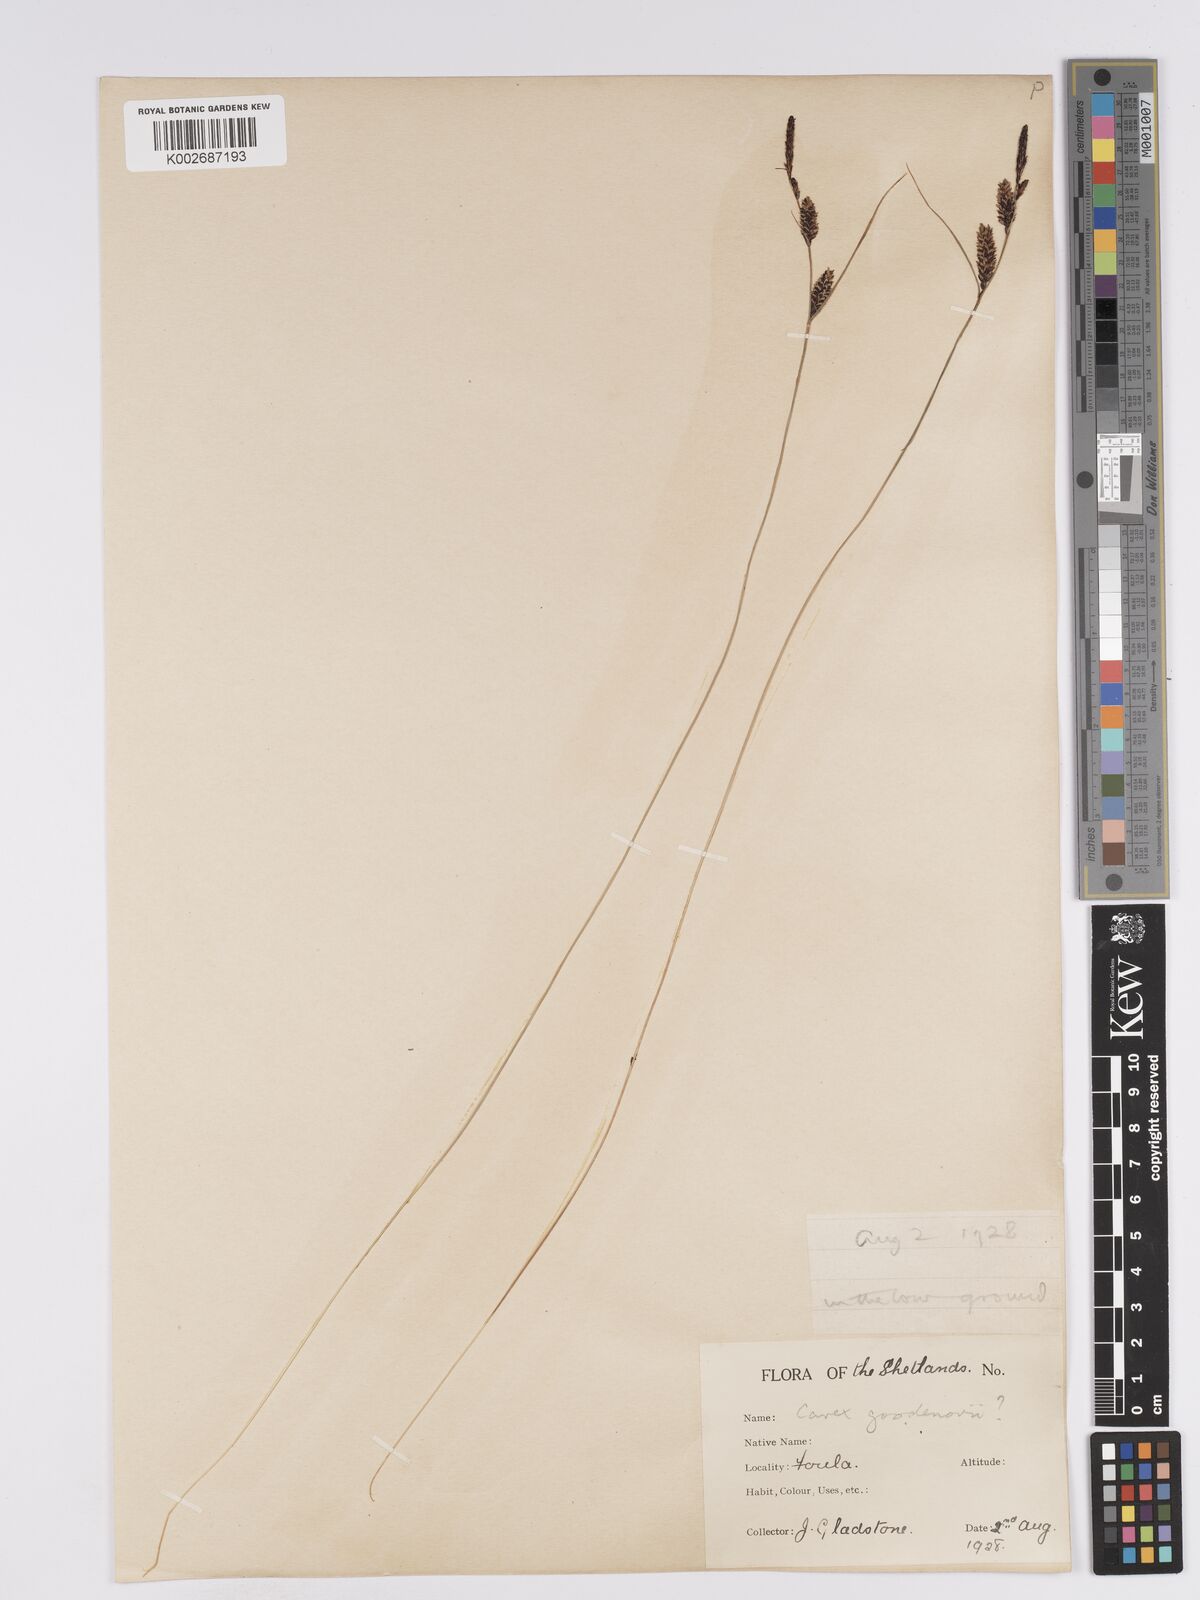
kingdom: Plantae
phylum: Tracheophyta
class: Liliopsida
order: Poales
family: Cyperaceae
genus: Carex
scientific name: Carex nigra
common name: Common sedge
